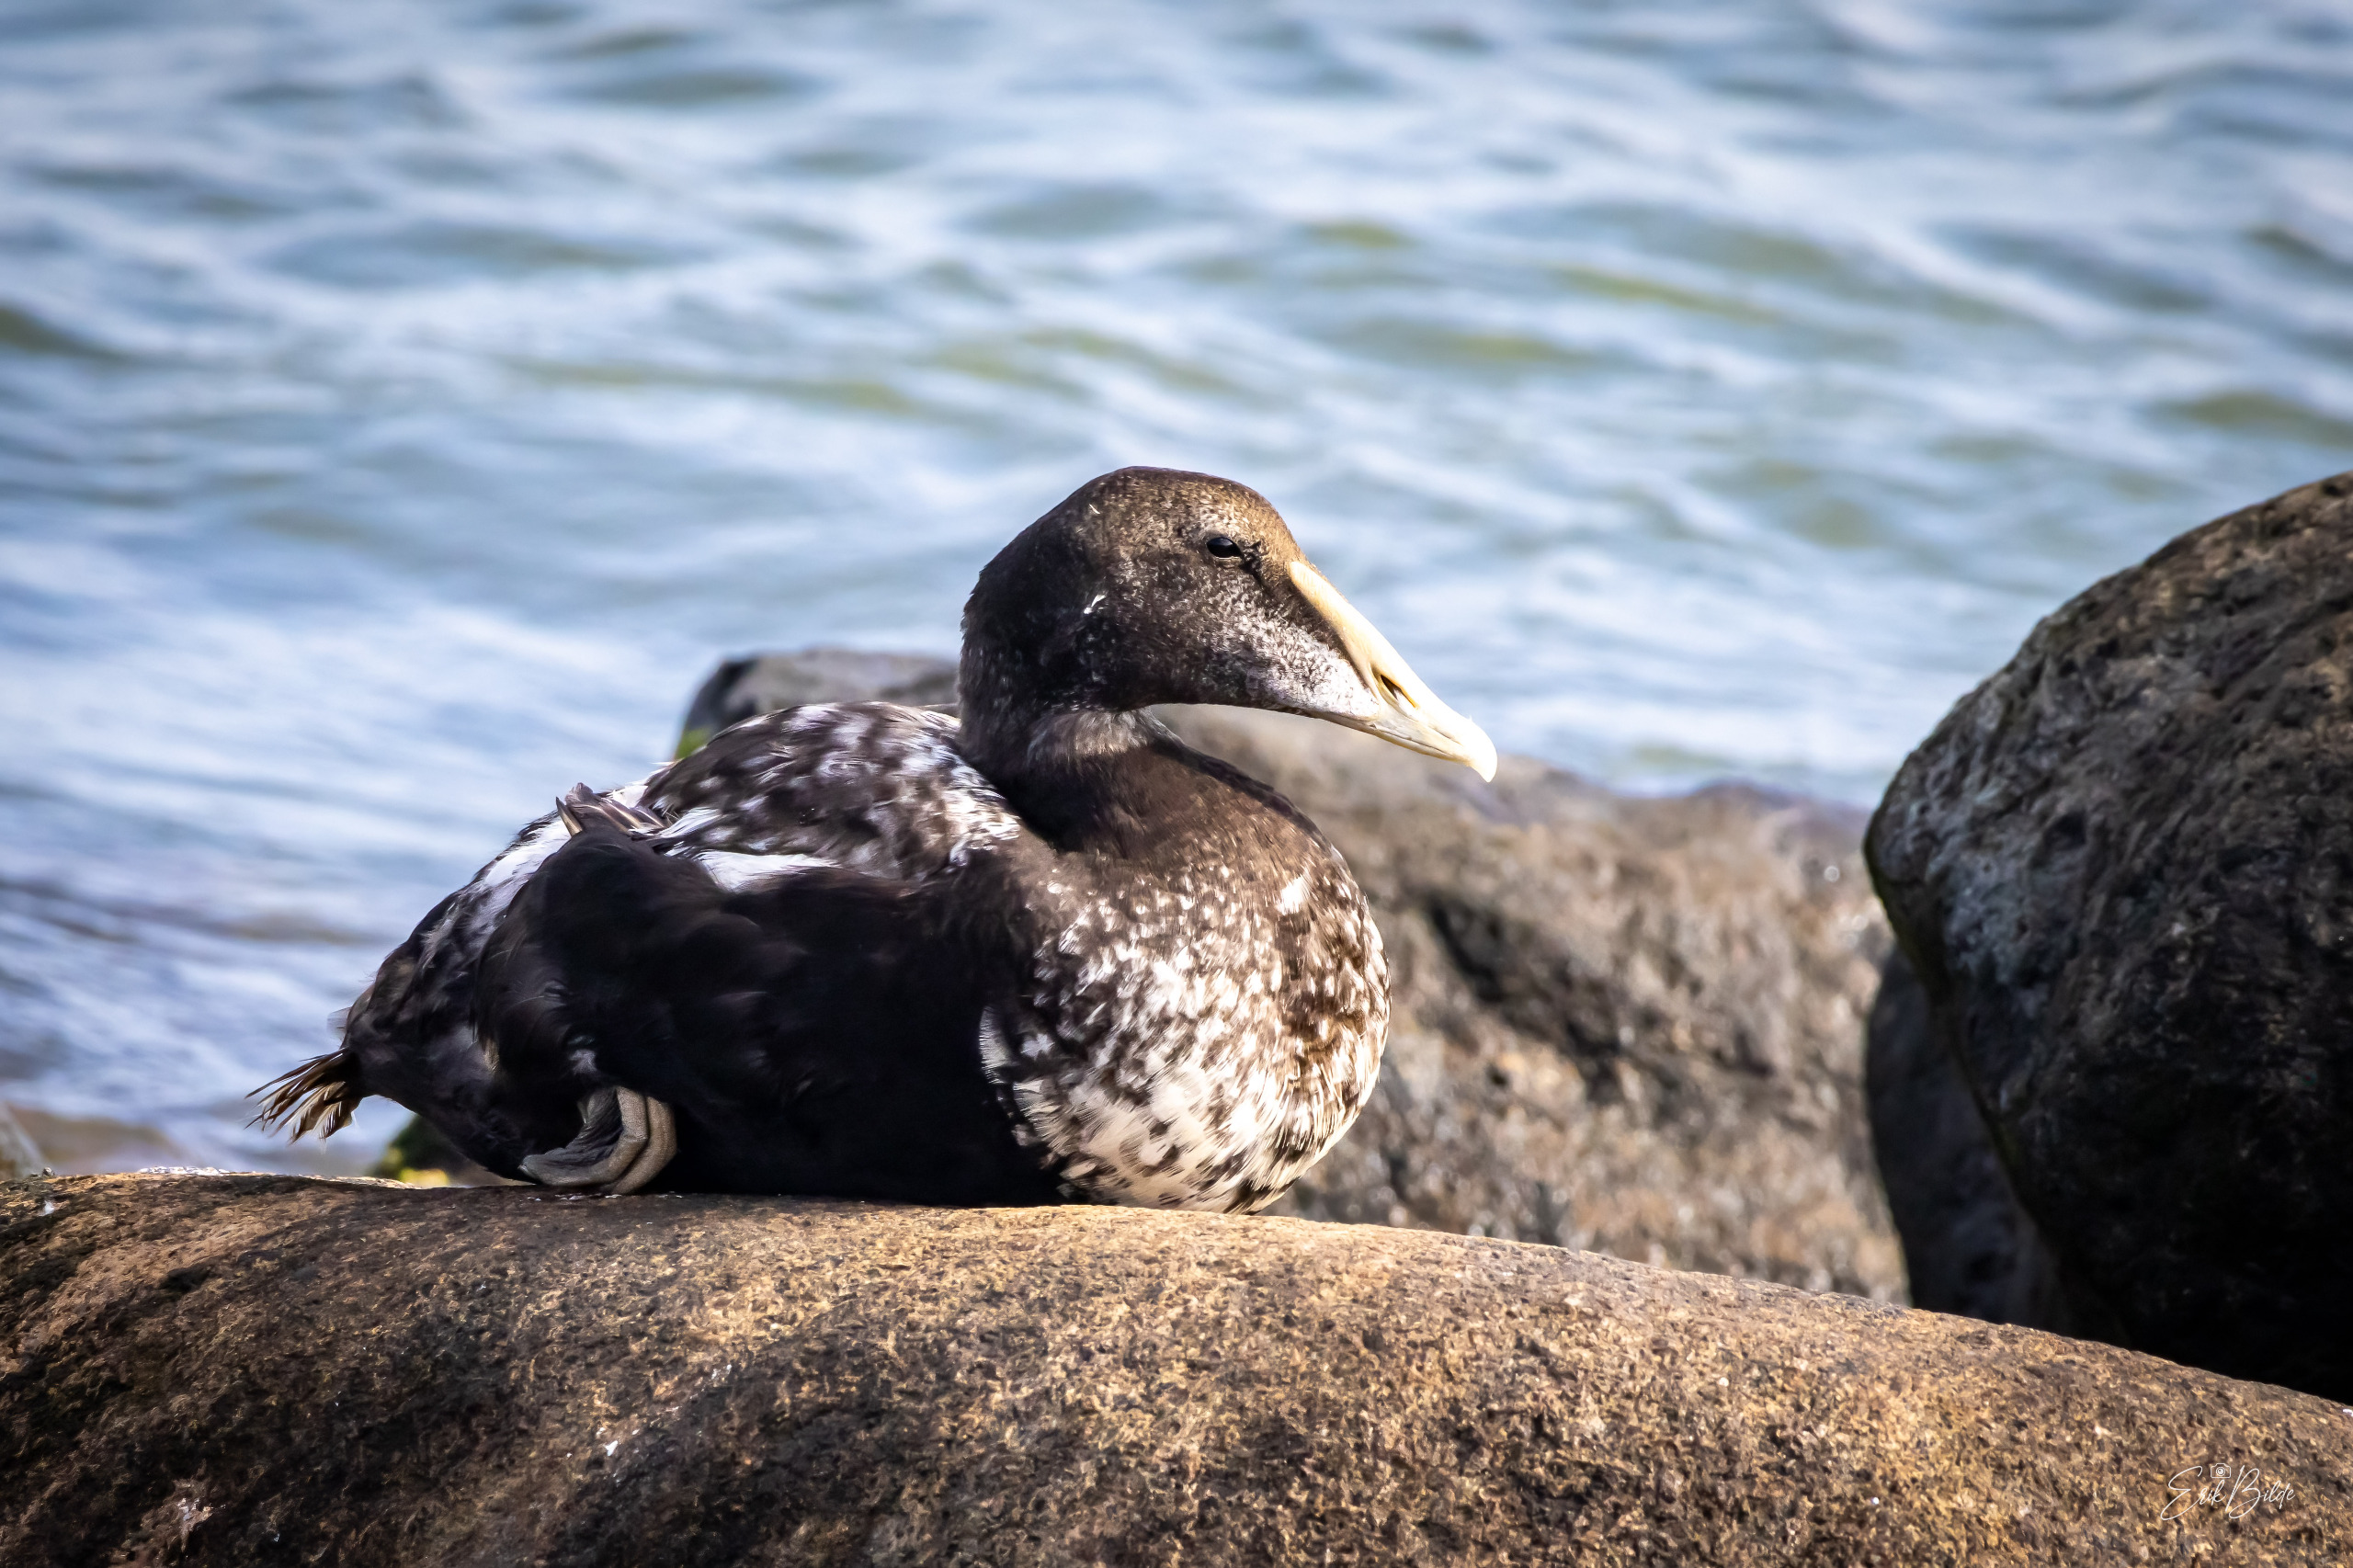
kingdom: Animalia
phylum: Chordata
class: Aves
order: Anseriformes
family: Anatidae
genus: Somateria
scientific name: Somateria mollissima
